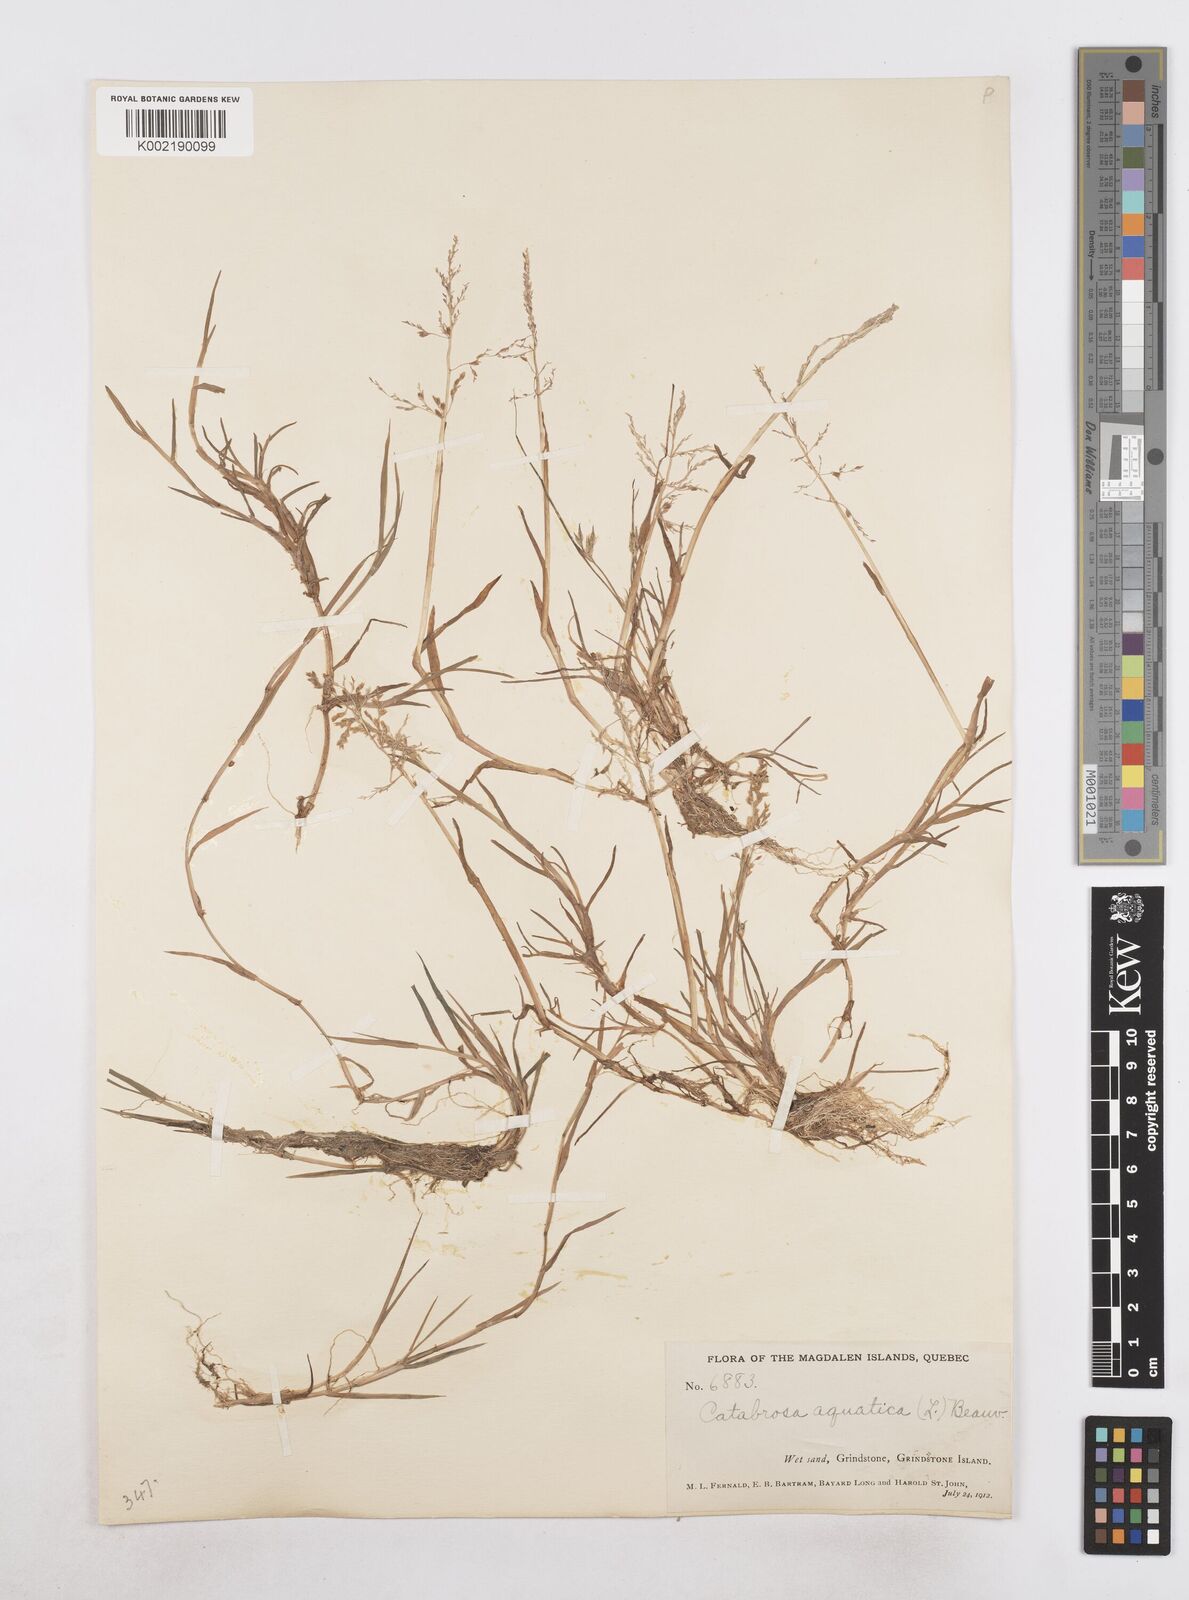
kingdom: Plantae
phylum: Tracheophyta
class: Liliopsida
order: Poales
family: Poaceae
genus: Catabrosa
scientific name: Catabrosa aquatica
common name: Whorl-grass
